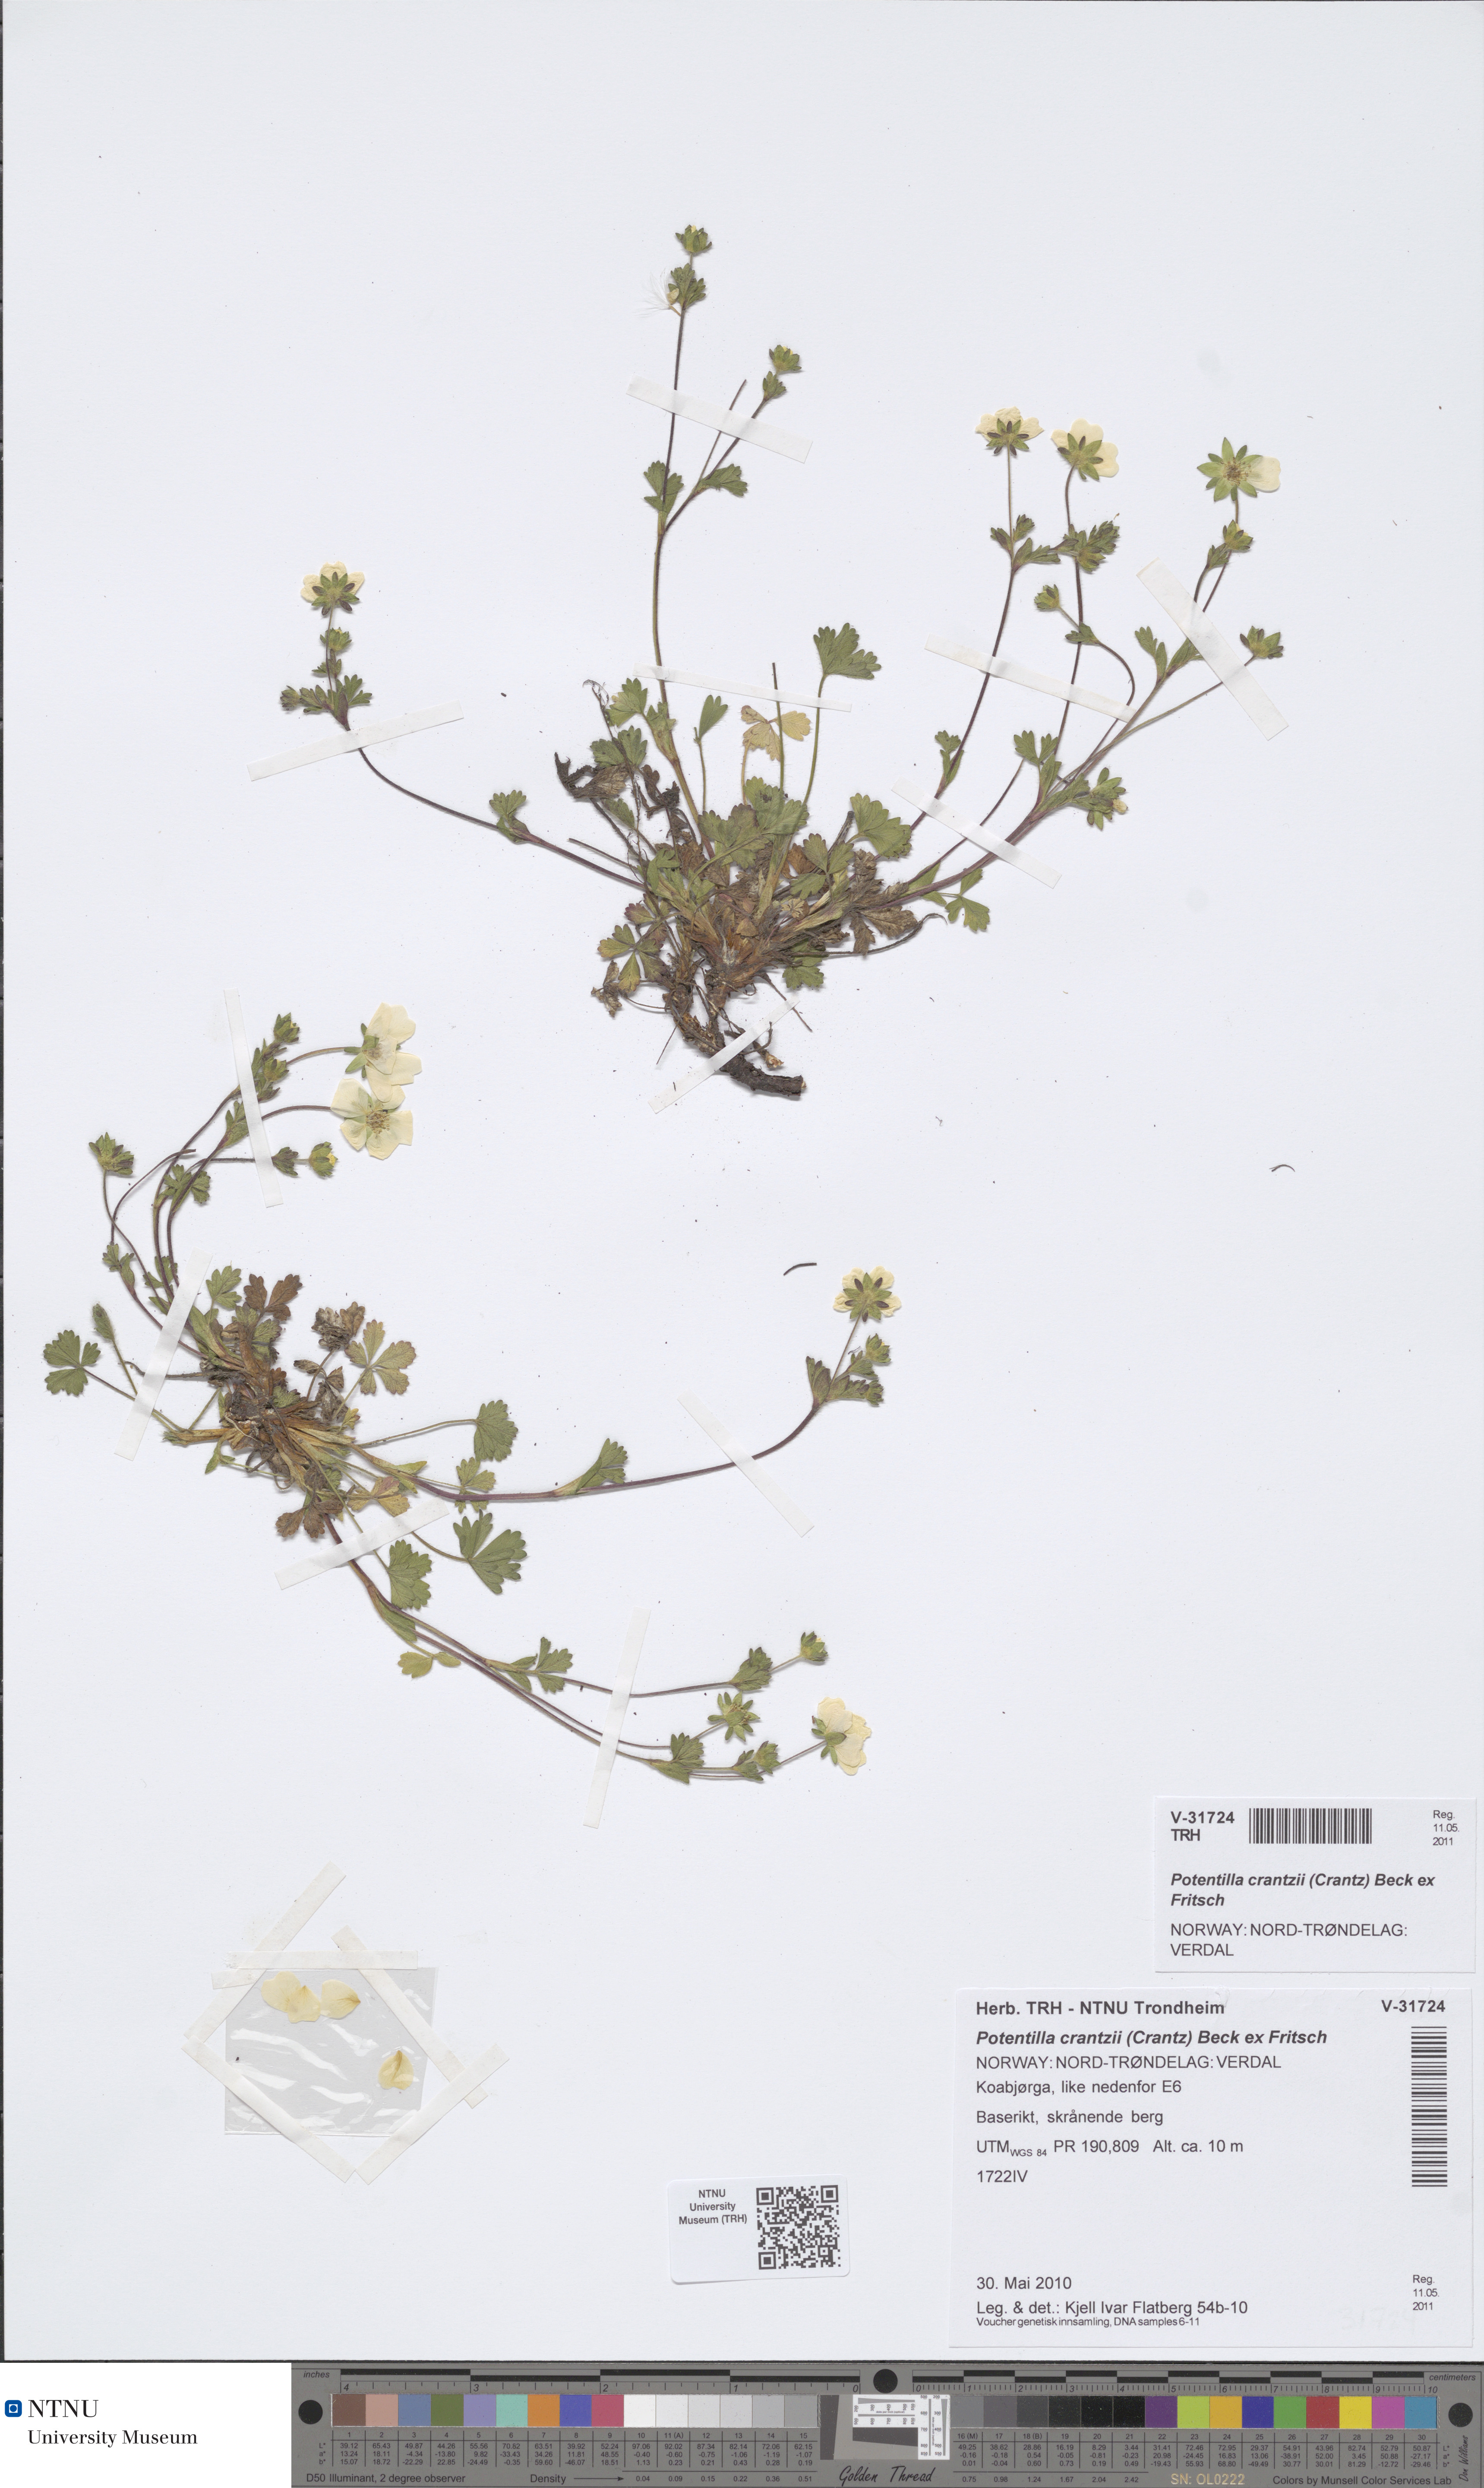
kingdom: Plantae
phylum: Tracheophyta
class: Magnoliopsida
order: Rosales
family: Rosaceae
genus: Potentilla
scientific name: Potentilla crantzii
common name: Alpine cinquefoil
